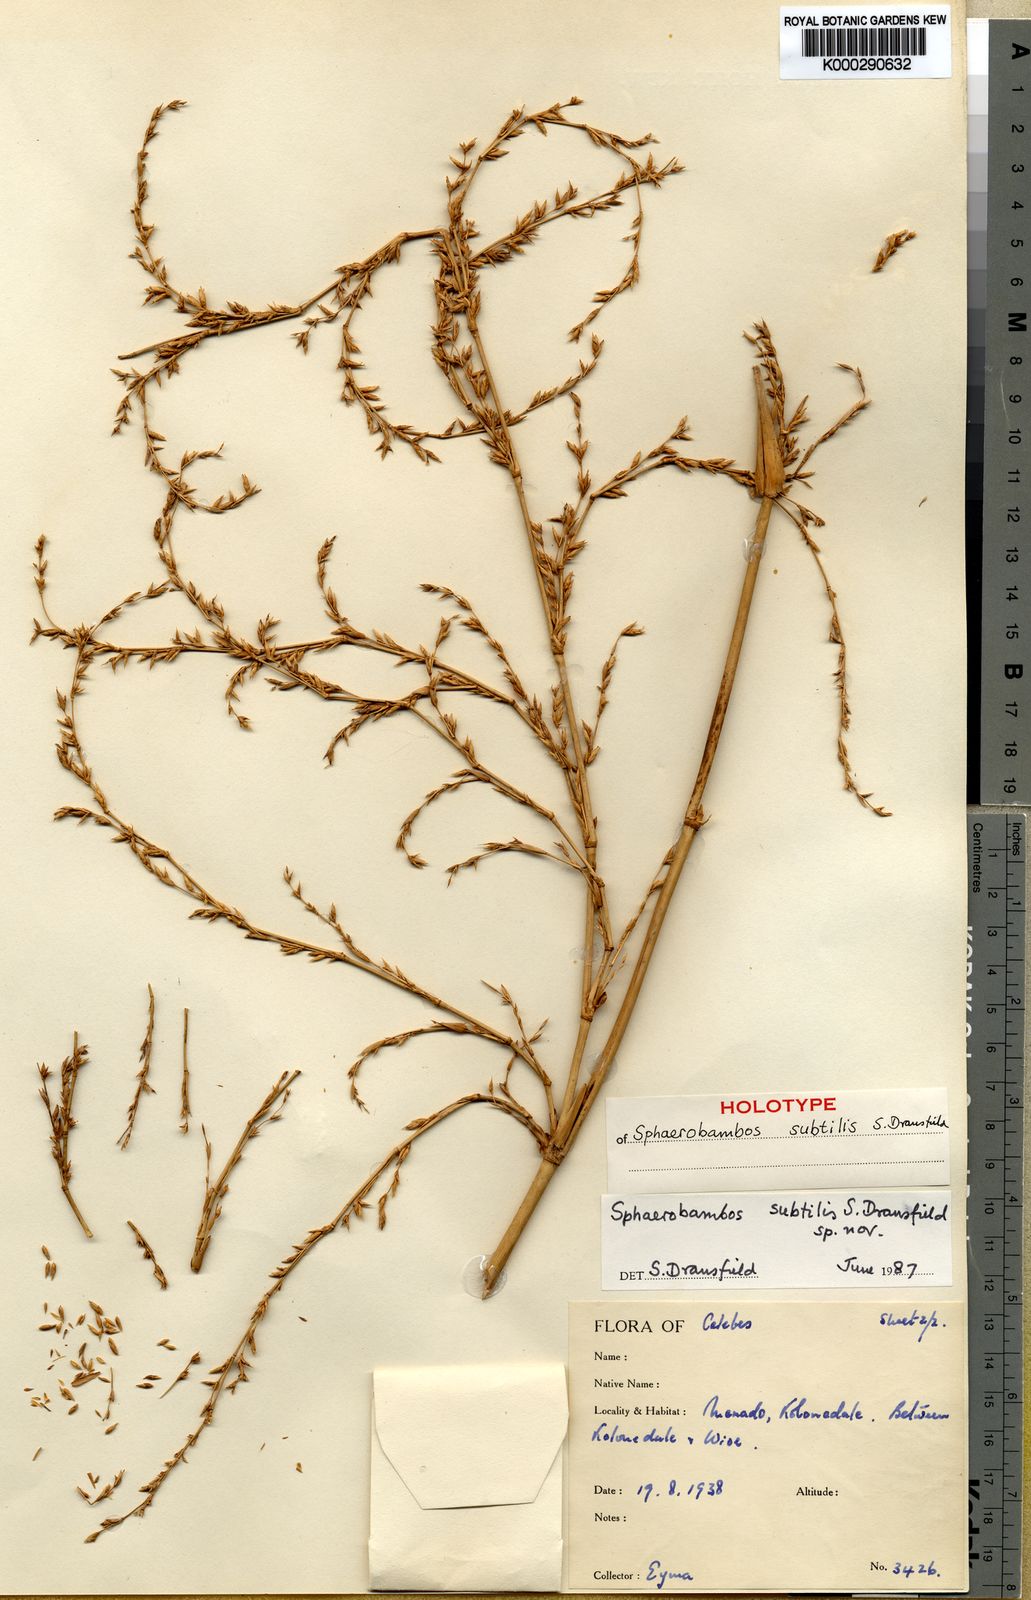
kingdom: Plantae
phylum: Tracheophyta
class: Liliopsida
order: Poales
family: Poaceae
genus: Sphaerobambos
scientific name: Sphaerobambos subtilis
